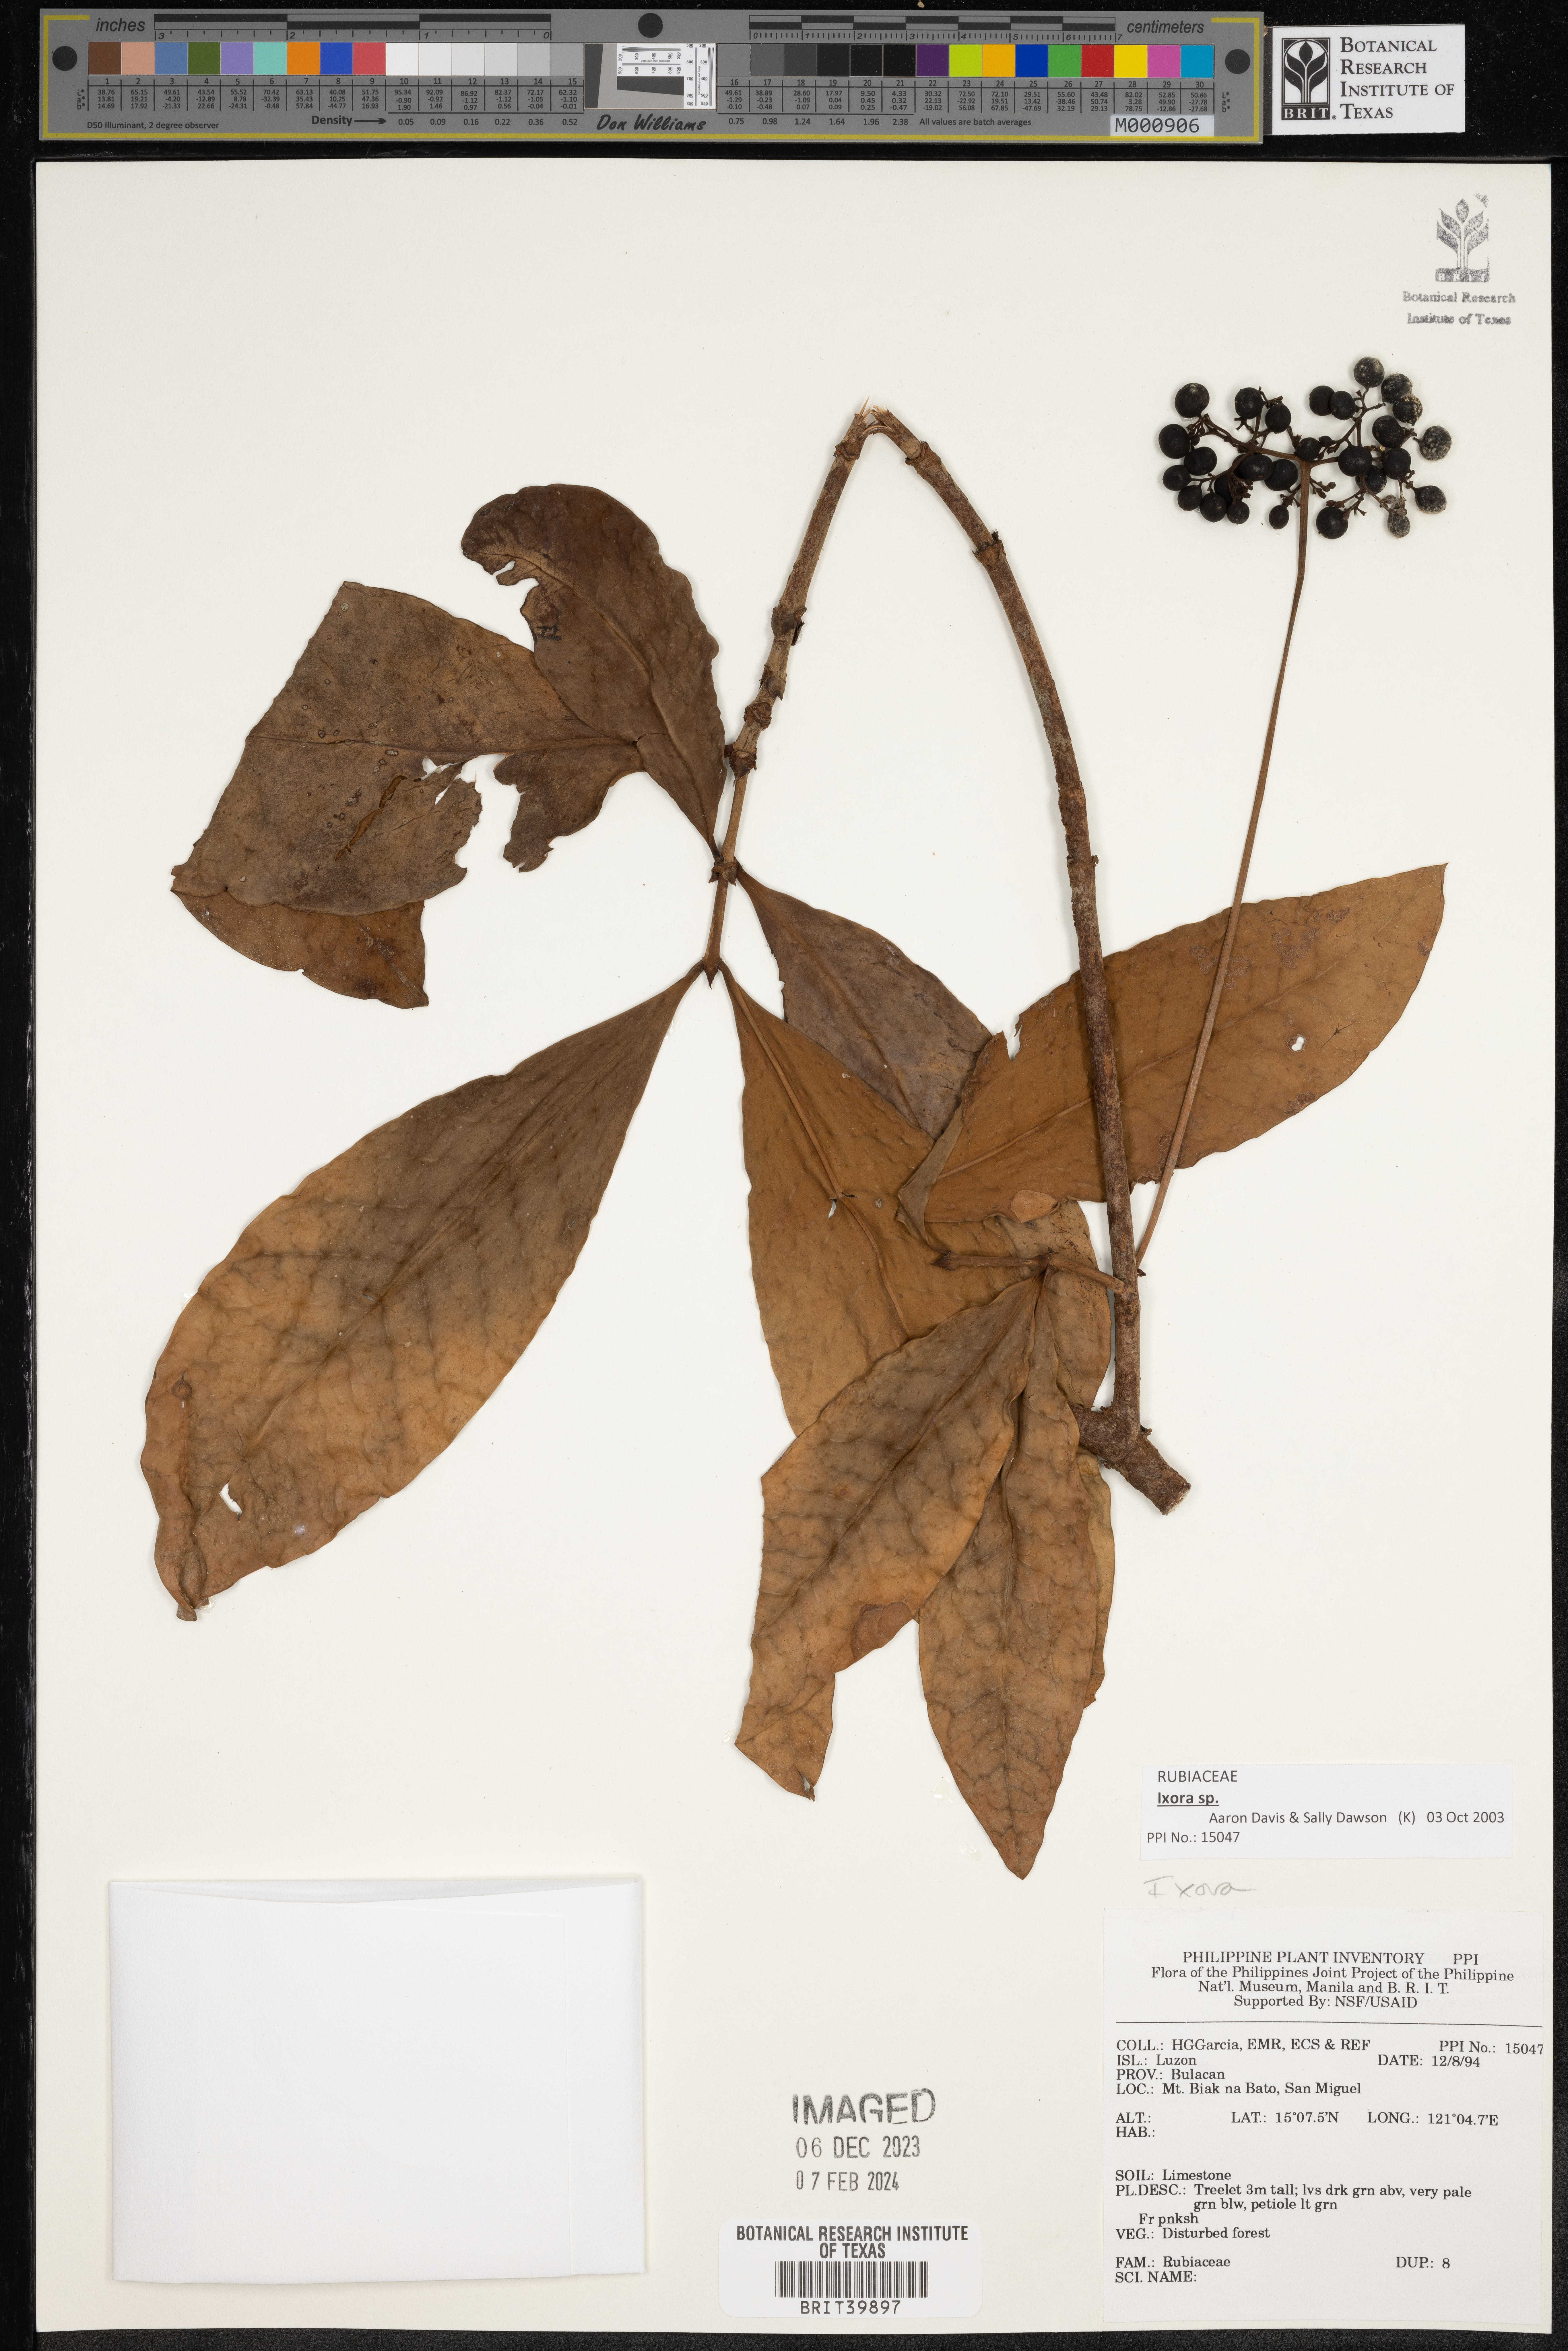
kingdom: Plantae
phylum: Tracheophyta
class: Magnoliopsida
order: Gentianales
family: Rubiaceae
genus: Ixora
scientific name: Ixora
